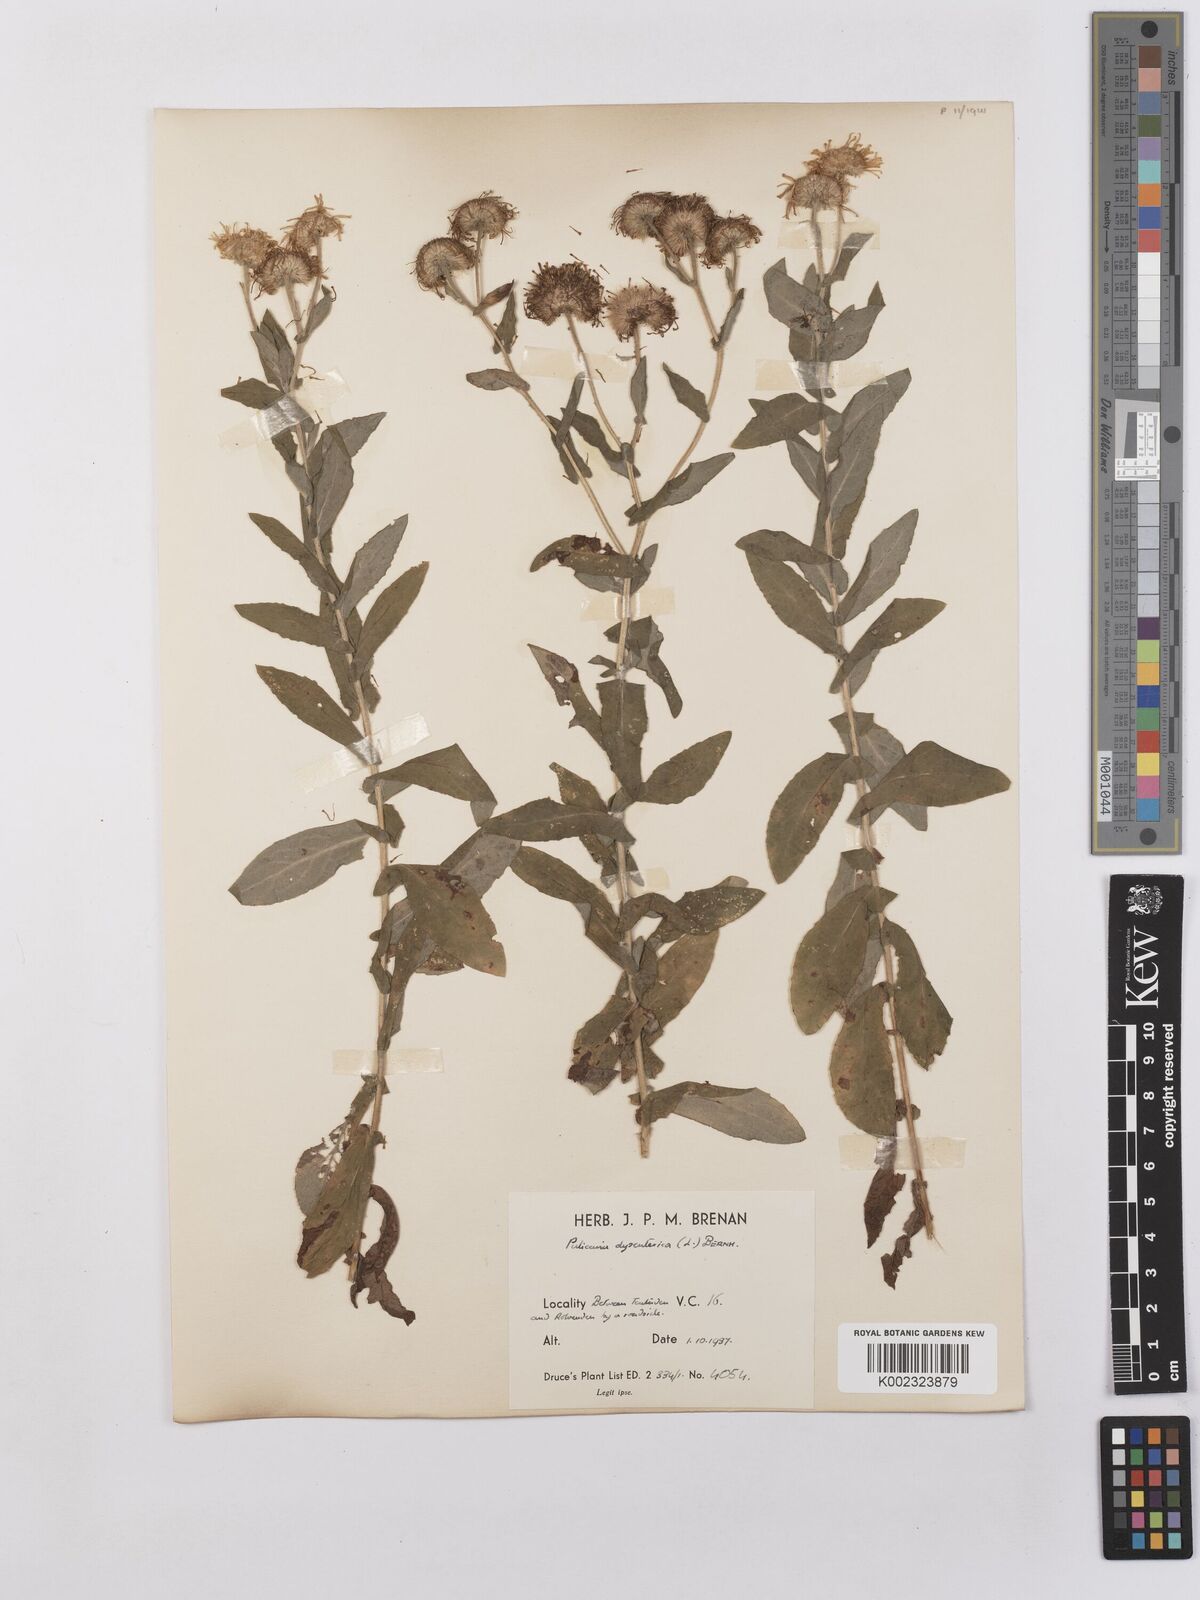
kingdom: Plantae
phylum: Tracheophyta
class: Magnoliopsida
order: Asterales
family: Asteraceae
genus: Pulicaria
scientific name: Pulicaria dysenterica
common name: Common fleabane
